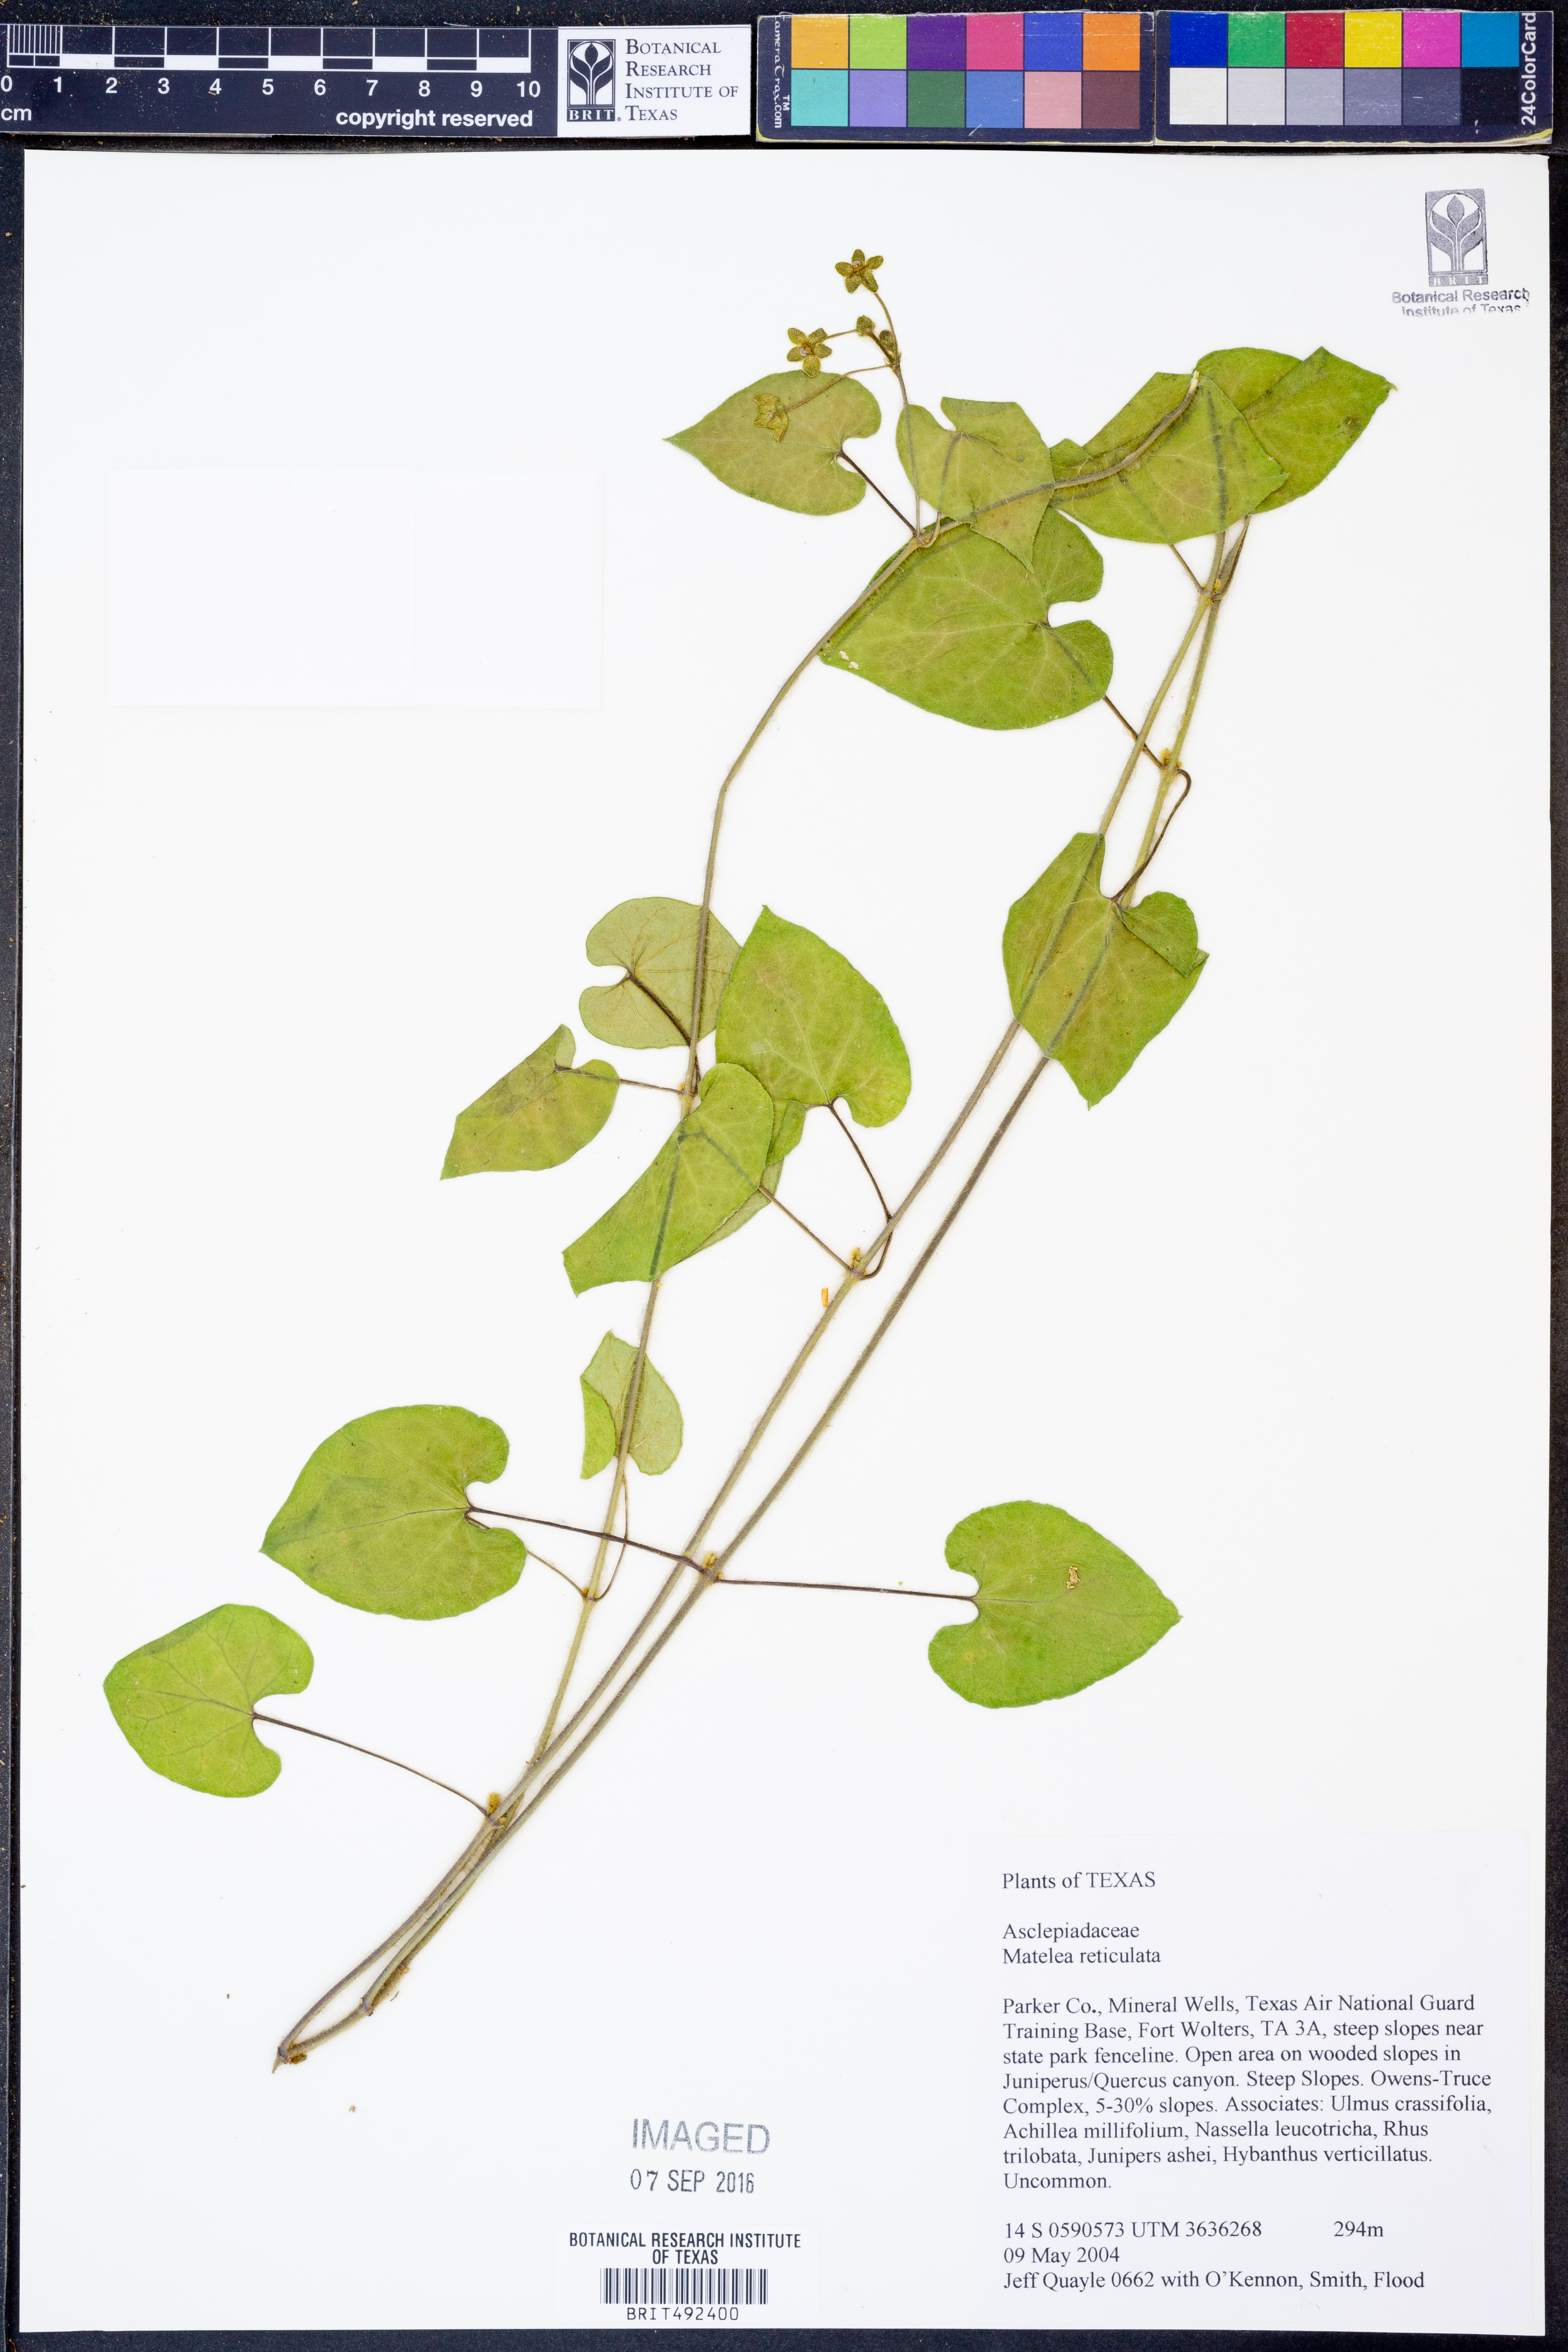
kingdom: Plantae
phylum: Tracheophyta
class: Magnoliopsida
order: Gentianales
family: Apocynaceae
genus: Dictyanthus
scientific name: Dictyanthus reticulatus
